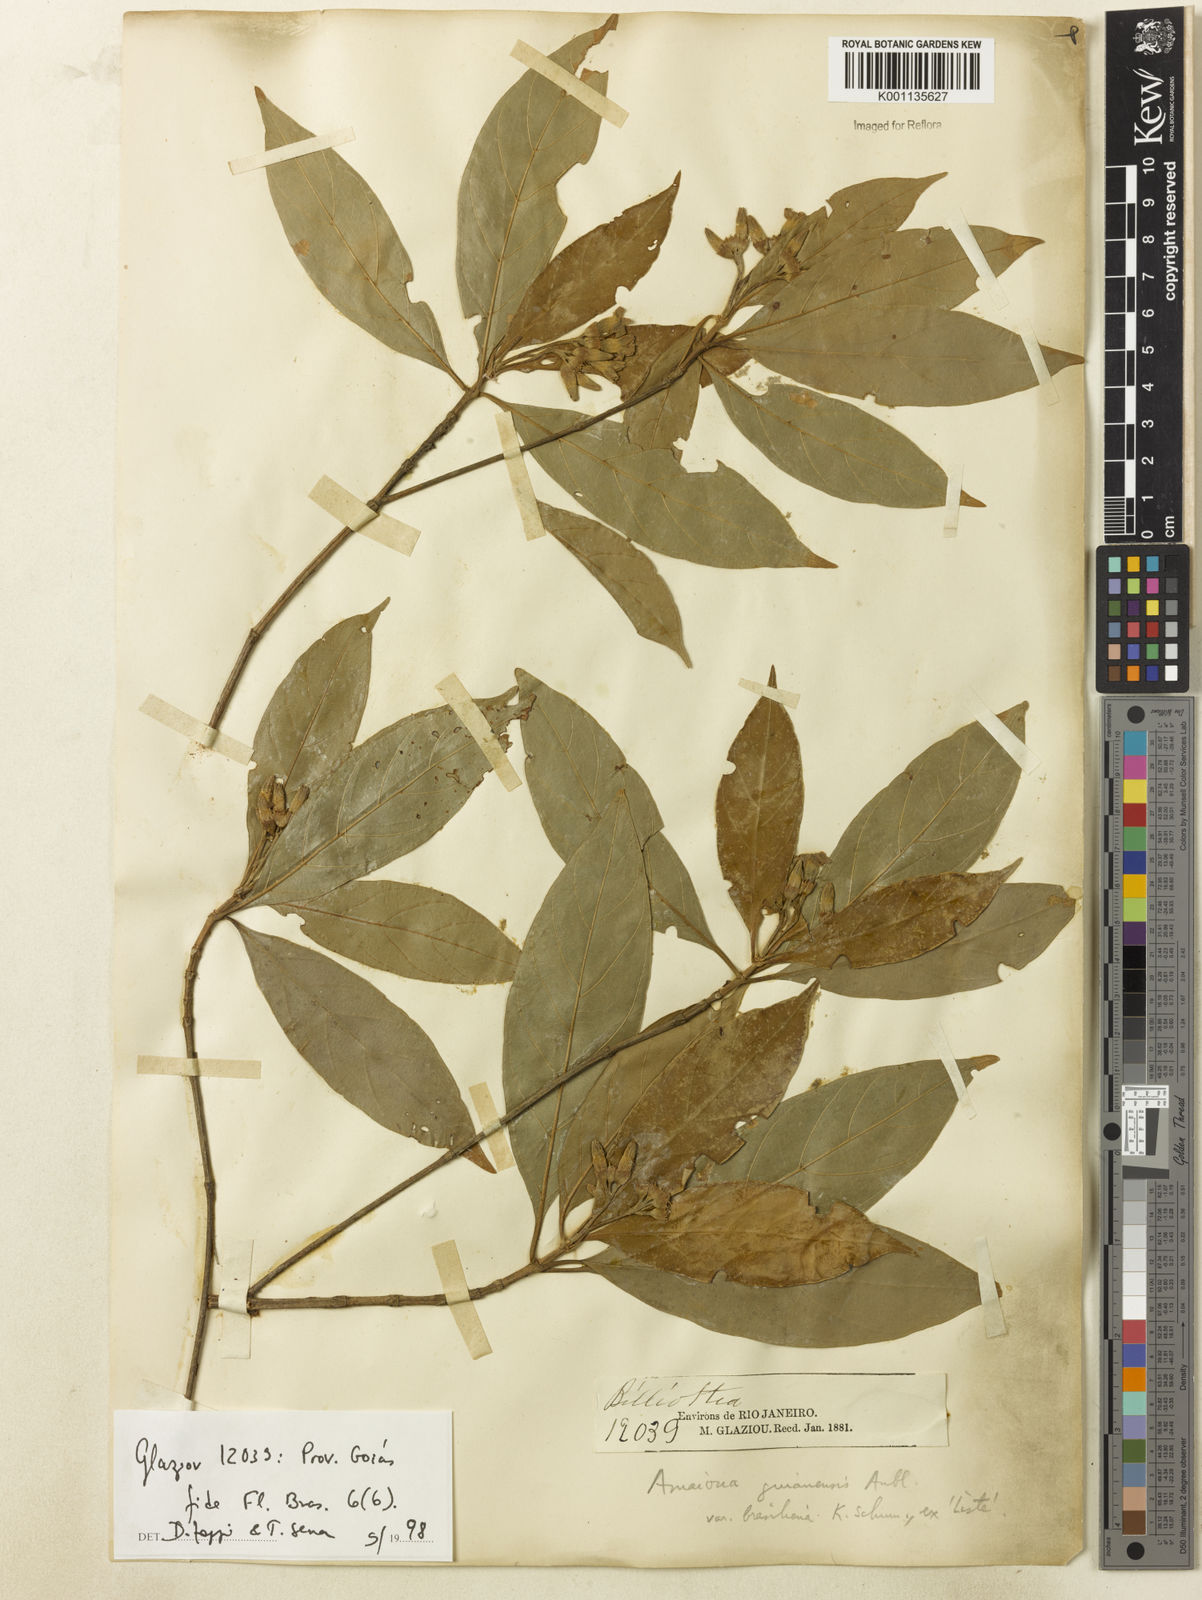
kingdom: Plantae
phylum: Tracheophyta
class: Magnoliopsida
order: Gentianales
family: Rubiaceae
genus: Amaioua
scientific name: Amaioua intermedia
